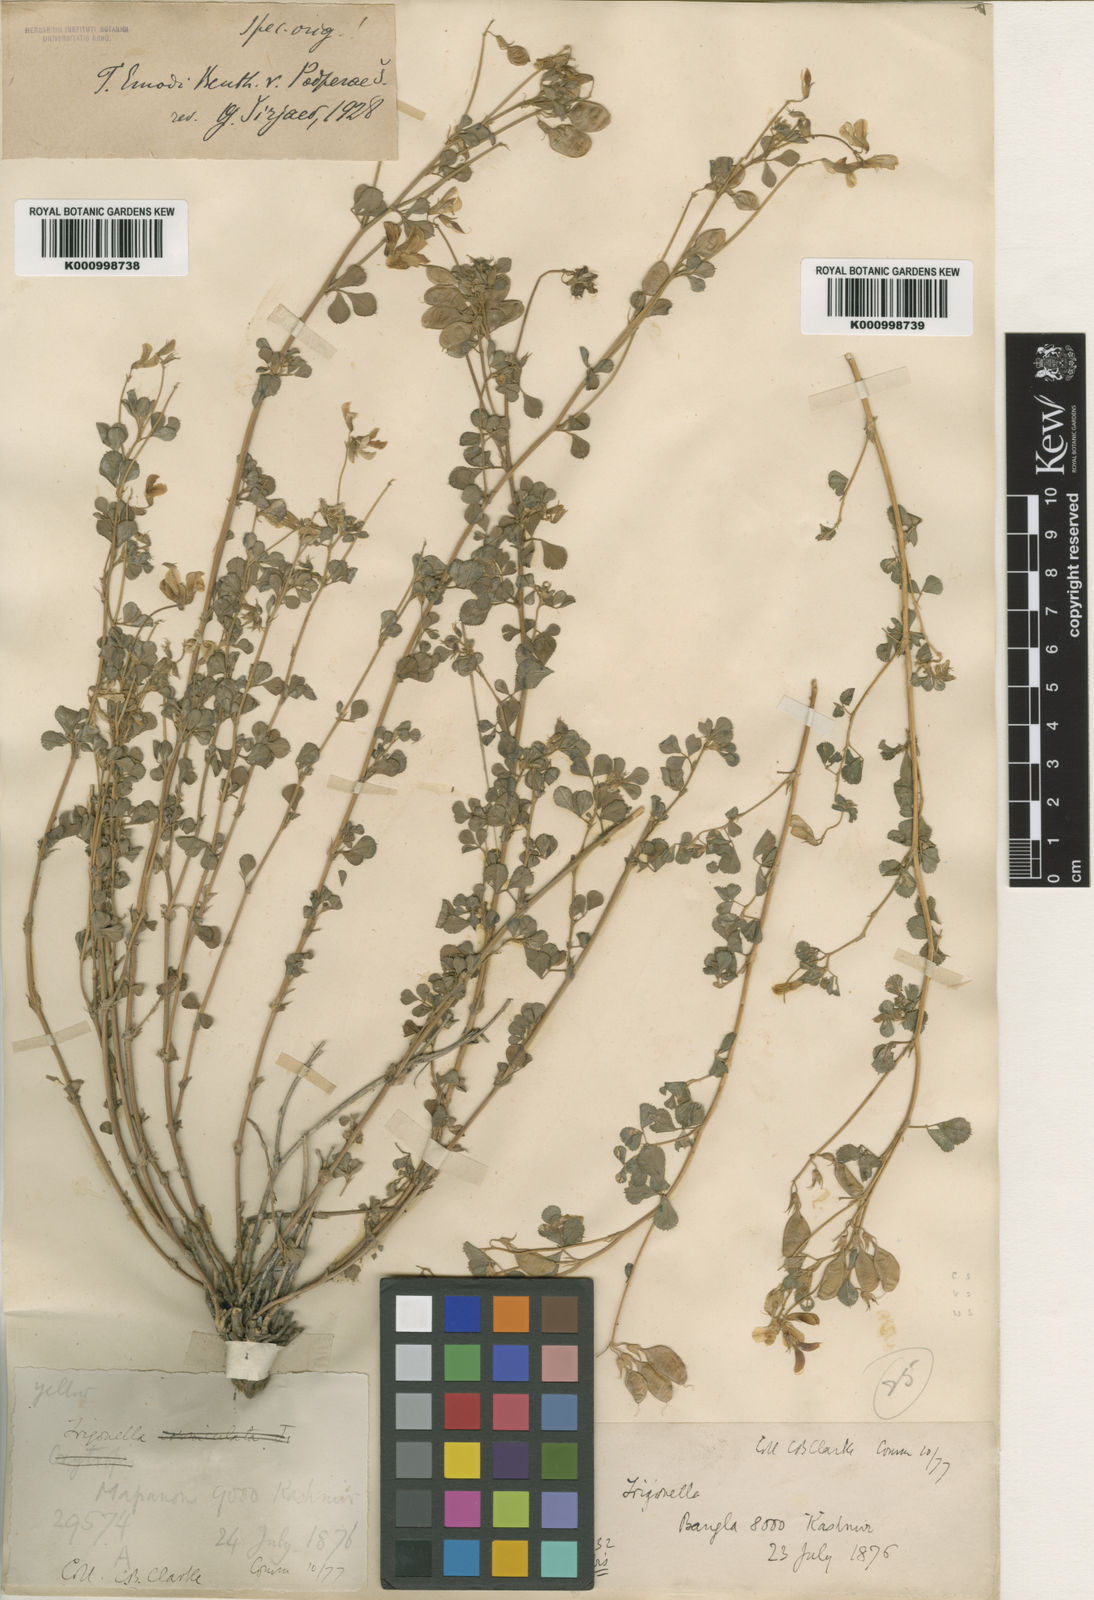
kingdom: Plantae
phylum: Tracheophyta
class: Magnoliopsida
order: Fabales
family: Fabaceae
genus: Trigonella
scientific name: Trigonella podperae
